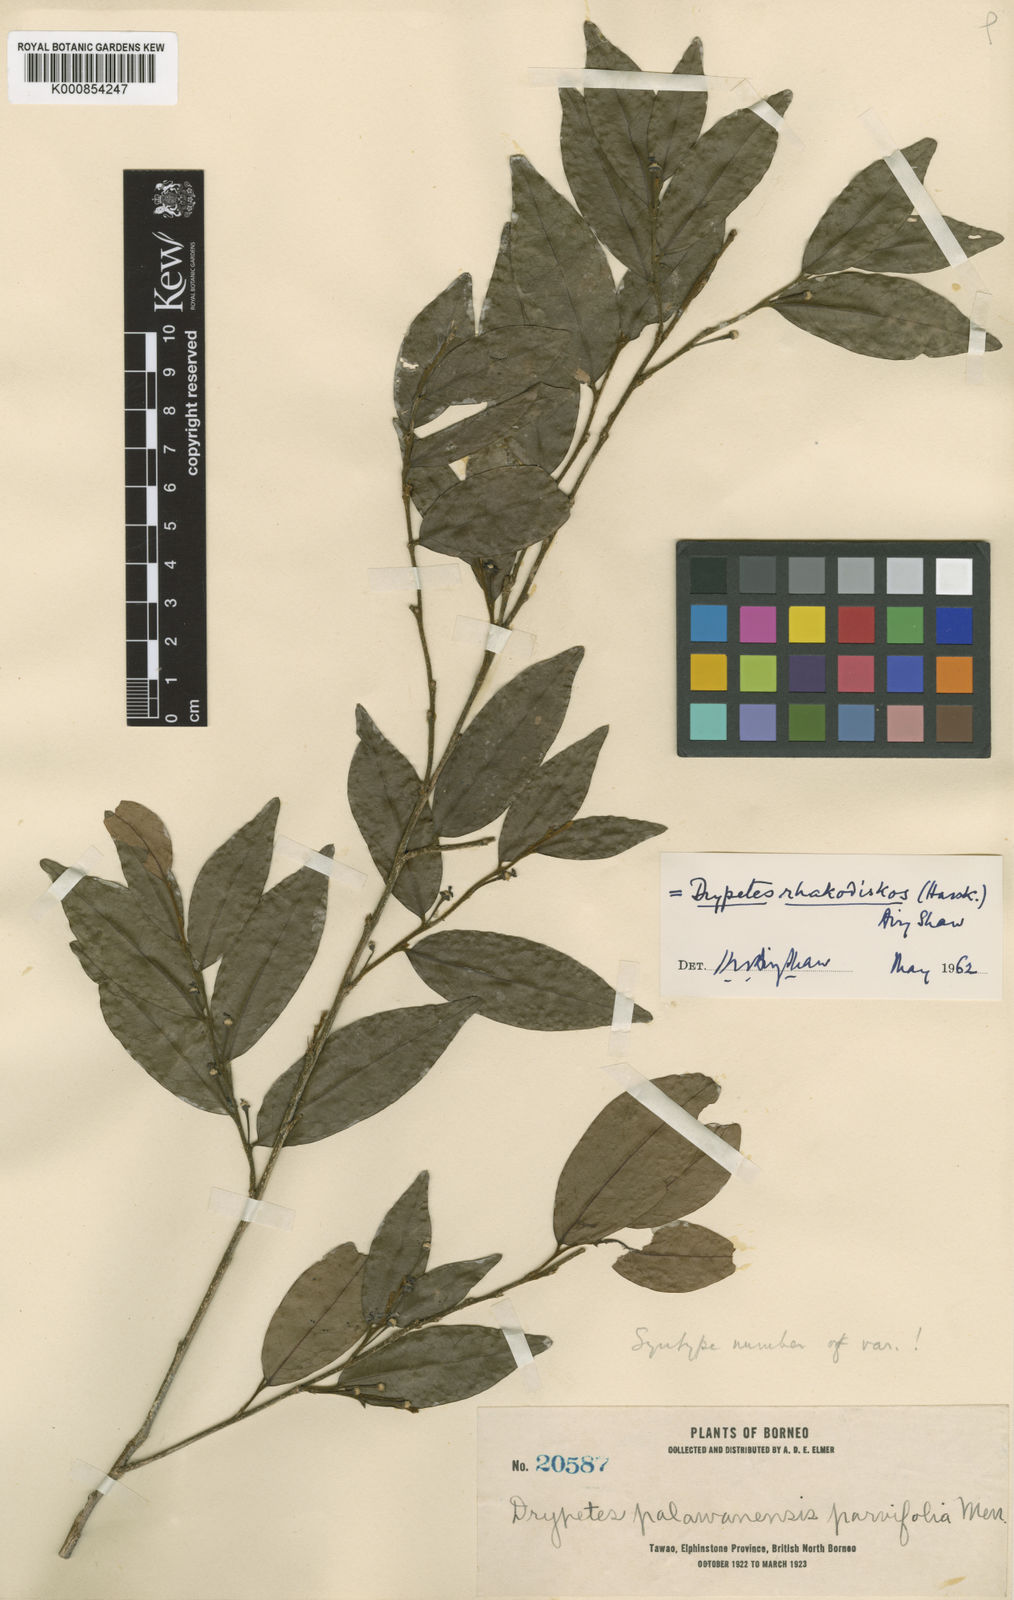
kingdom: Plantae
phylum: Tracheophyta
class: Magnoliopsida
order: Malpighiales
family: Putranjivaceae
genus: Drypetes
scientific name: Drypetes
